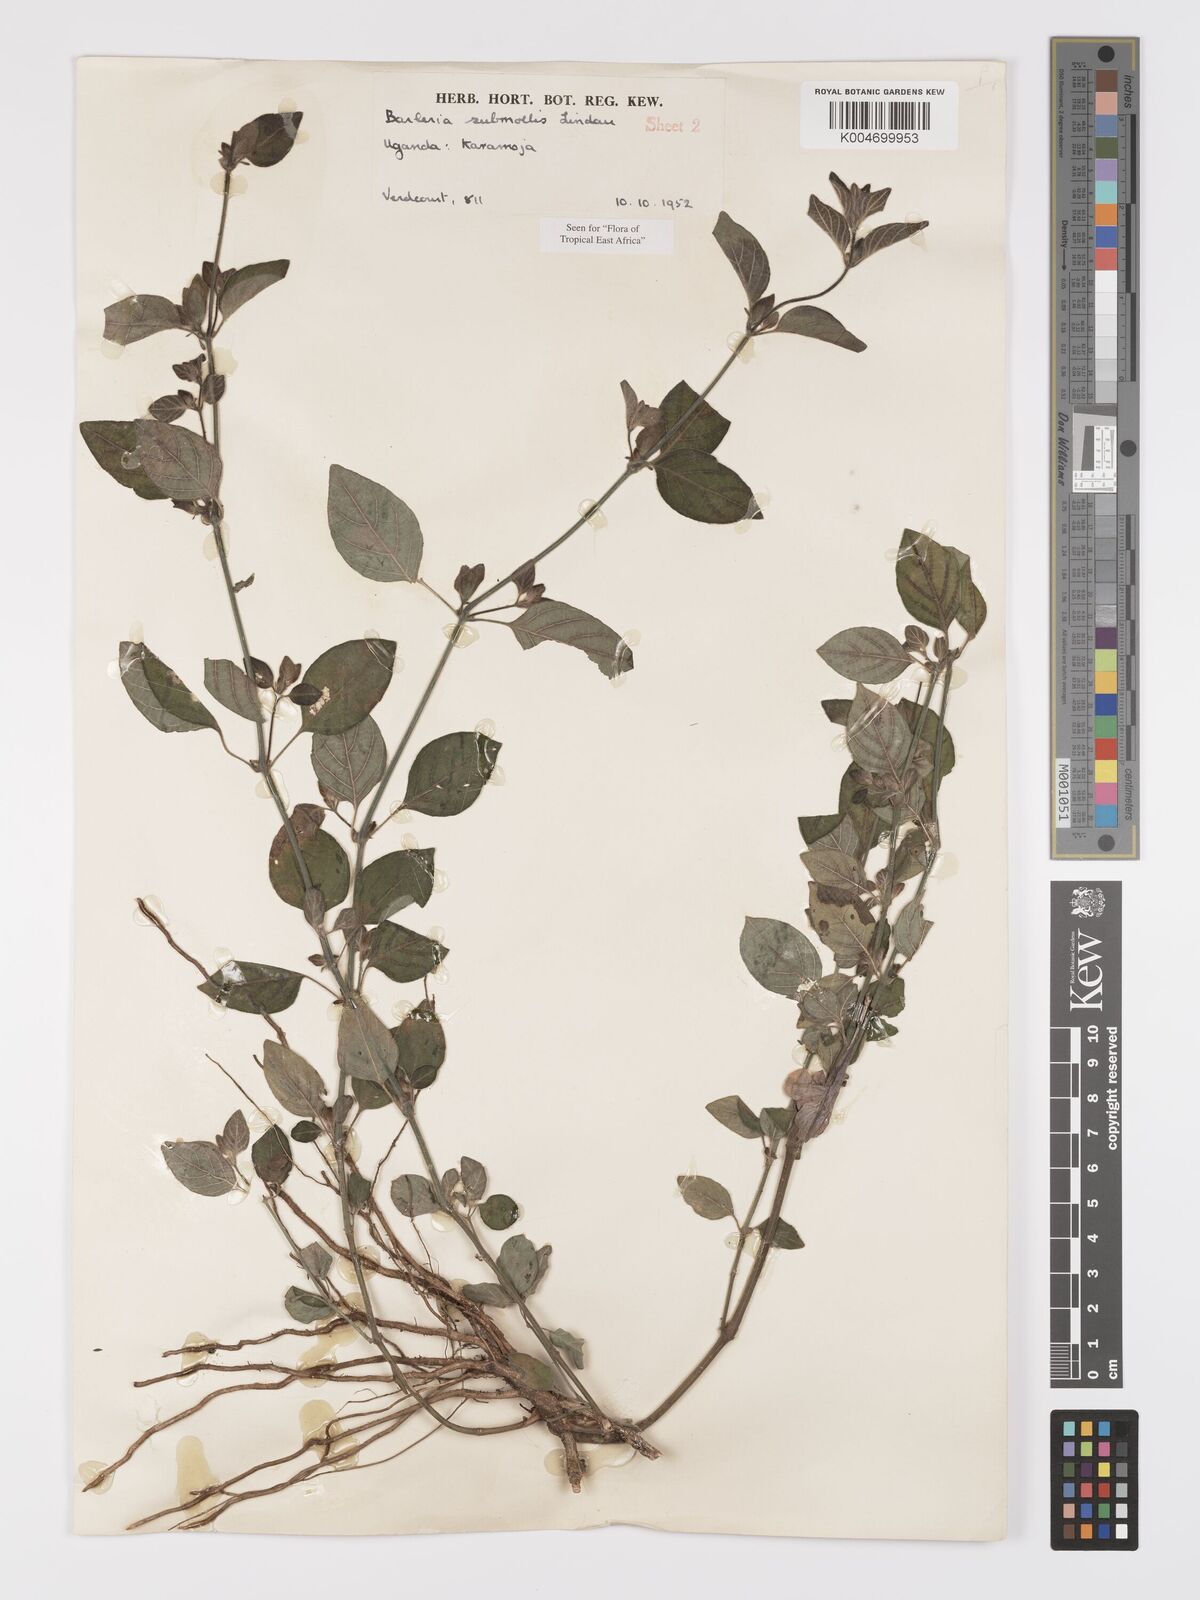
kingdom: Plantae
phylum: Tracheophyta
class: Magnoliopsida
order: Lamiales
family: Acanthaceae
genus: Barleria
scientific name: Barleria submollis
